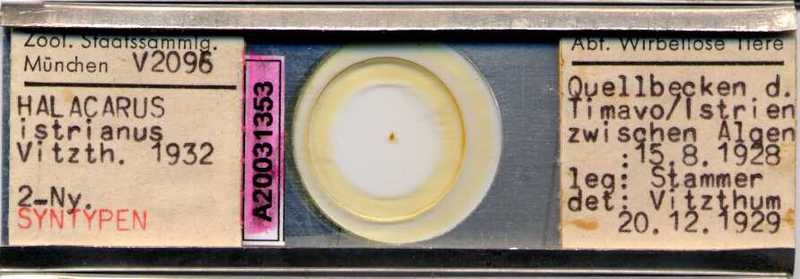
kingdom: Animalia
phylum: Arthropoda
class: Arachnida
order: Trombidiformes
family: Halacaridae
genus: Thalassarachna
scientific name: Thalassarachna affinis
